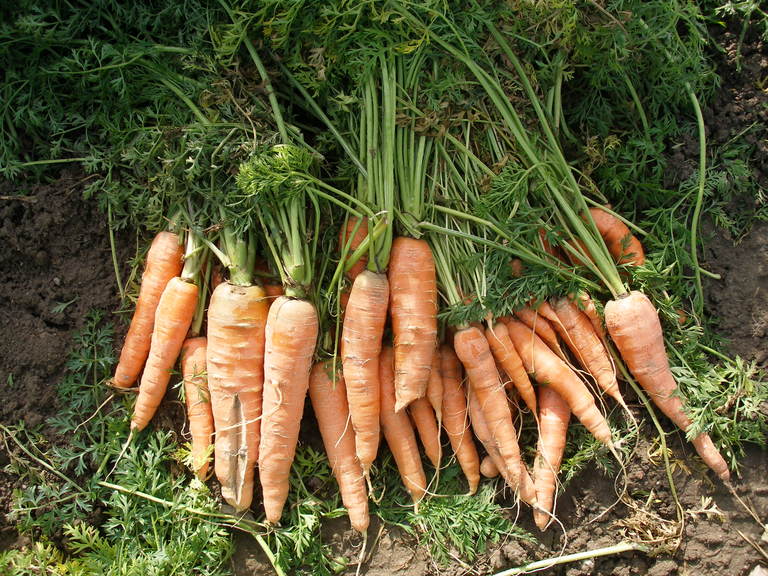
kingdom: Plantae
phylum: Tracheophyta
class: Magnoliopsida
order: Apiales
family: Apiaceae
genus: Daucus
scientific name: Daucus carota
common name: Wild carrot
